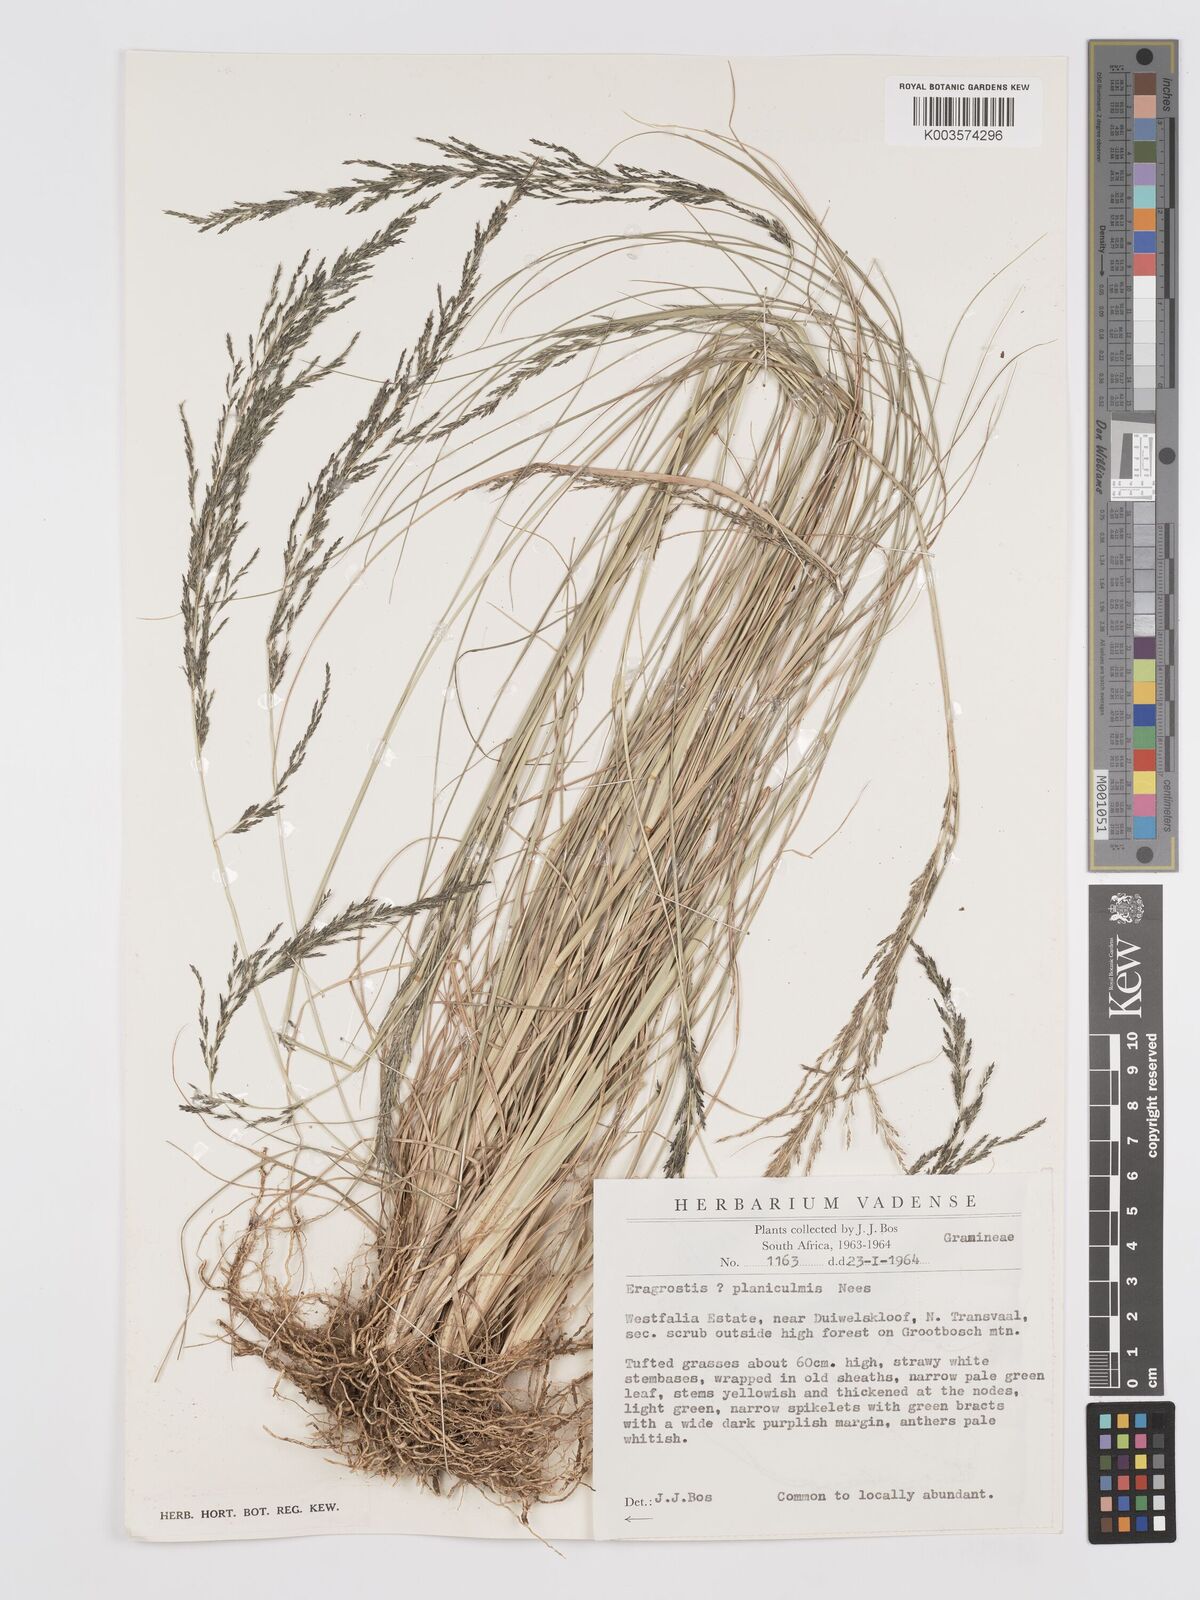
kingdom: Plantae
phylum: Tracheophyta
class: Liliopsida
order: Poales
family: Poaceae
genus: Eragrostis
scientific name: Eragrostis plana
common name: South african lovegrass
